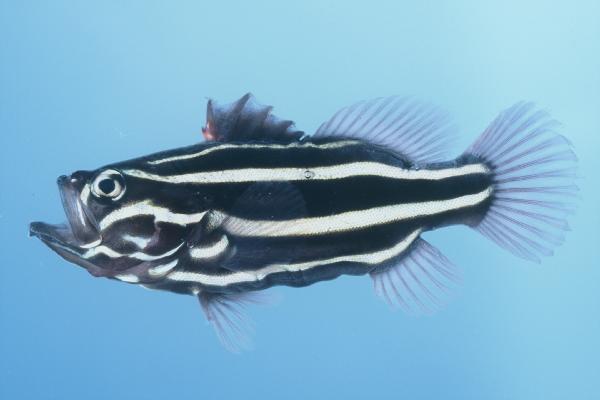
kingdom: Animalia
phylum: Chordata
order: Perciformes
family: Serranidae
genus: Grammistes
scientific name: Grammistes sexlineatus
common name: Sixline soapfish
